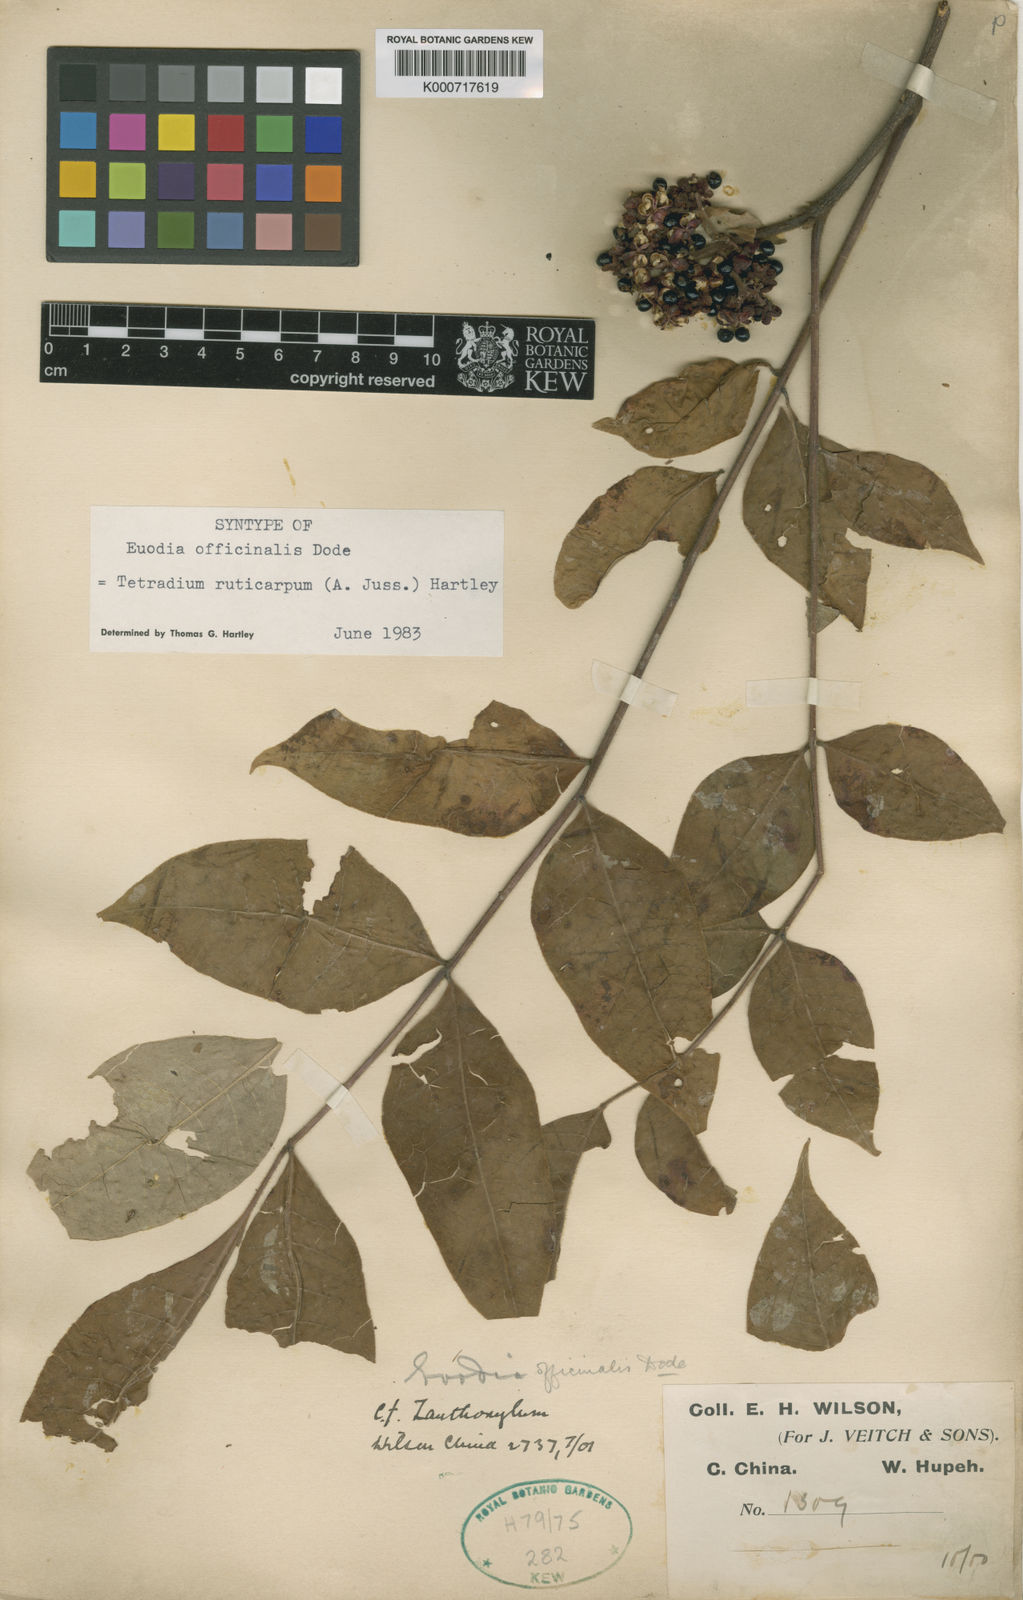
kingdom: Plantae
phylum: Tracheophyta
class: Magnoliopsida
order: Sapindales
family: Rutaceae
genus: Tetradium
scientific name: Tetradium ruticarpum
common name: Evodia
